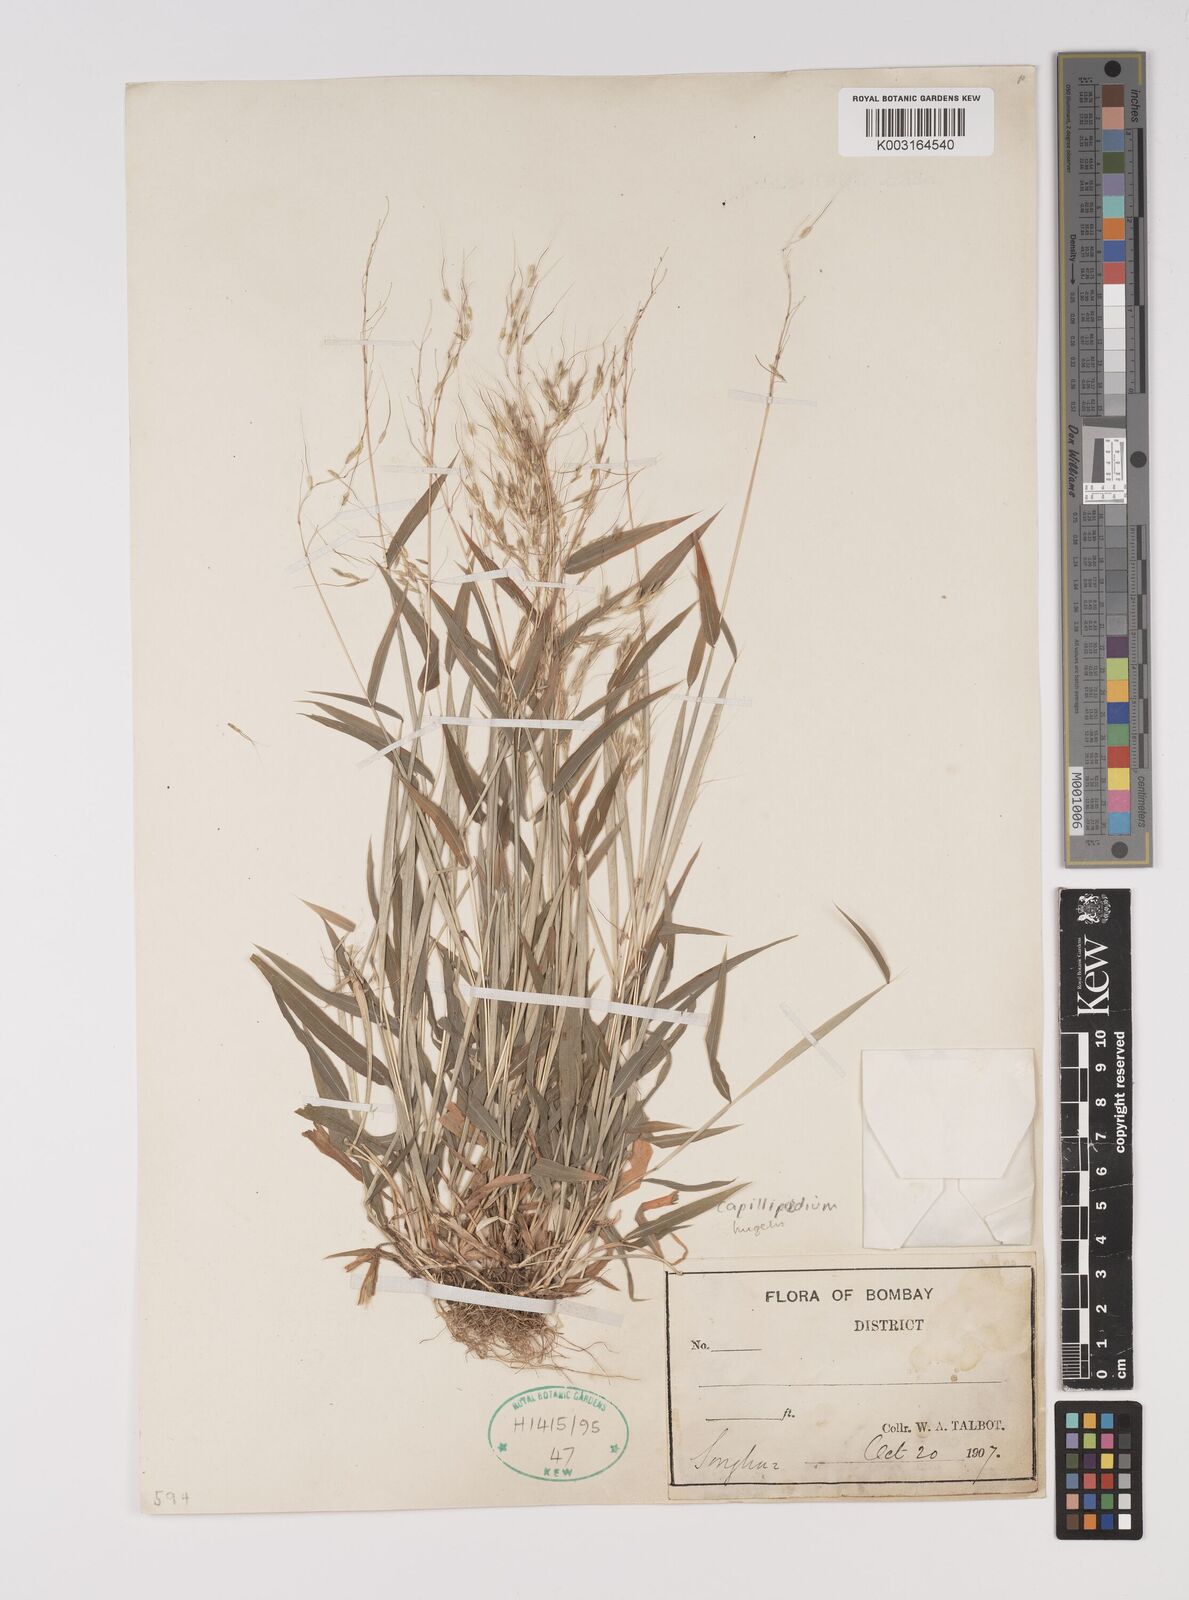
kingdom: Plantae
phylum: Tracheophyta
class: Liliopsida
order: Poales
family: Poaceae
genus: Capillipedium
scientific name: Capillipedium huegelii
